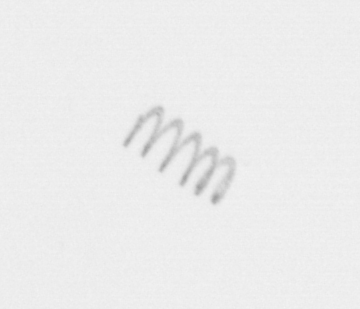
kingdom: Chromista
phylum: Ochrophyta
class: Bacillariophyceae
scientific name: Bacillariophyceae
